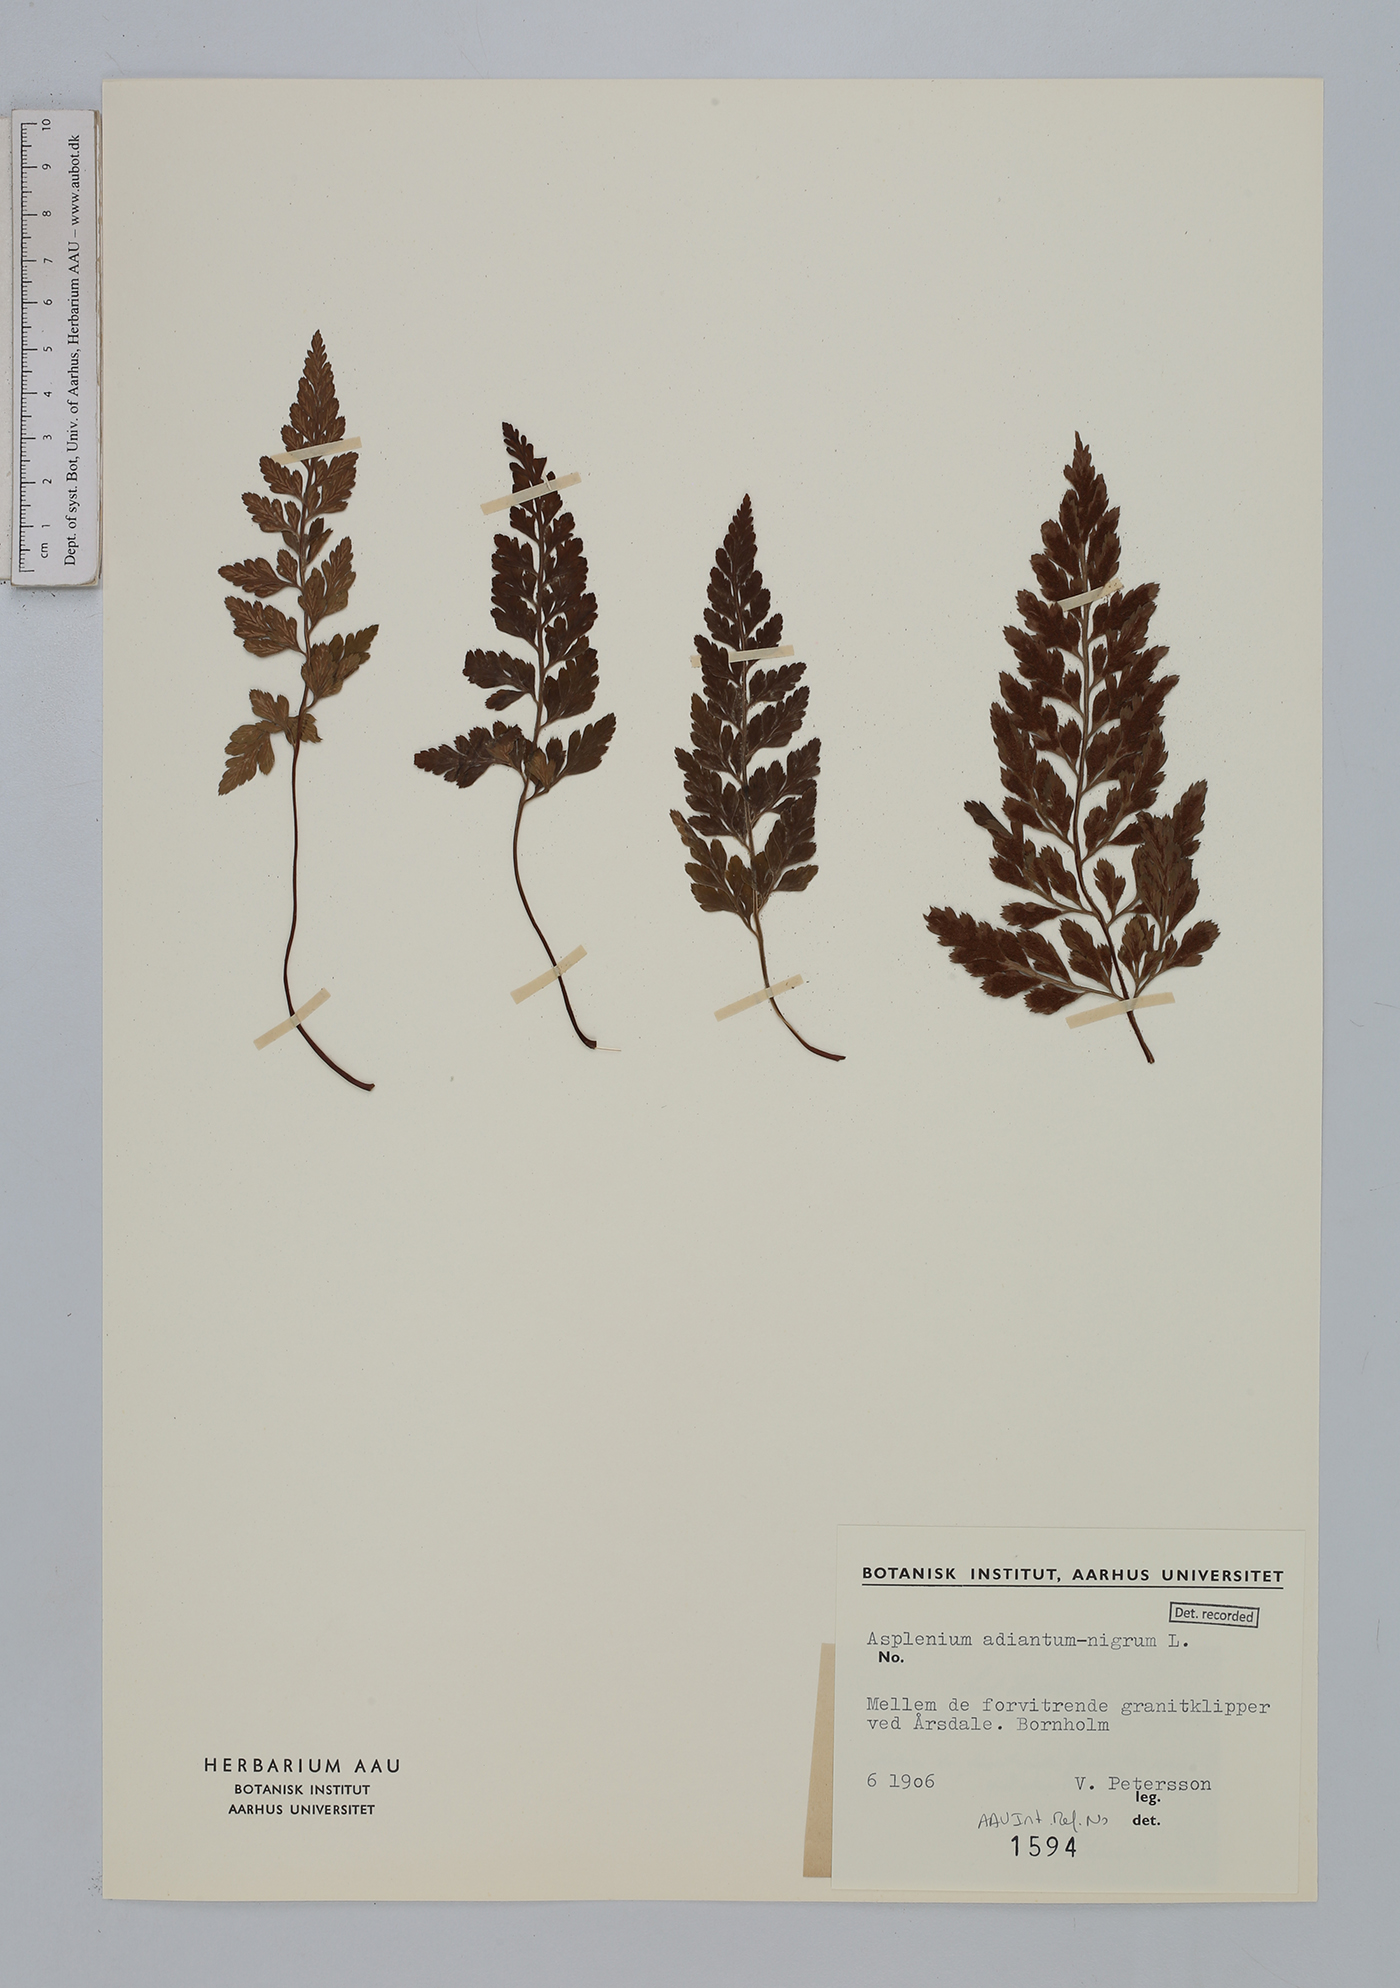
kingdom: Plantae
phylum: Tracheophyta
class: Polypodiopsida
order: Polypodiales
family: Aspleniaceae
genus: Asplenium
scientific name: Asplenium adiantum-nigrum
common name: Black spleenwort
